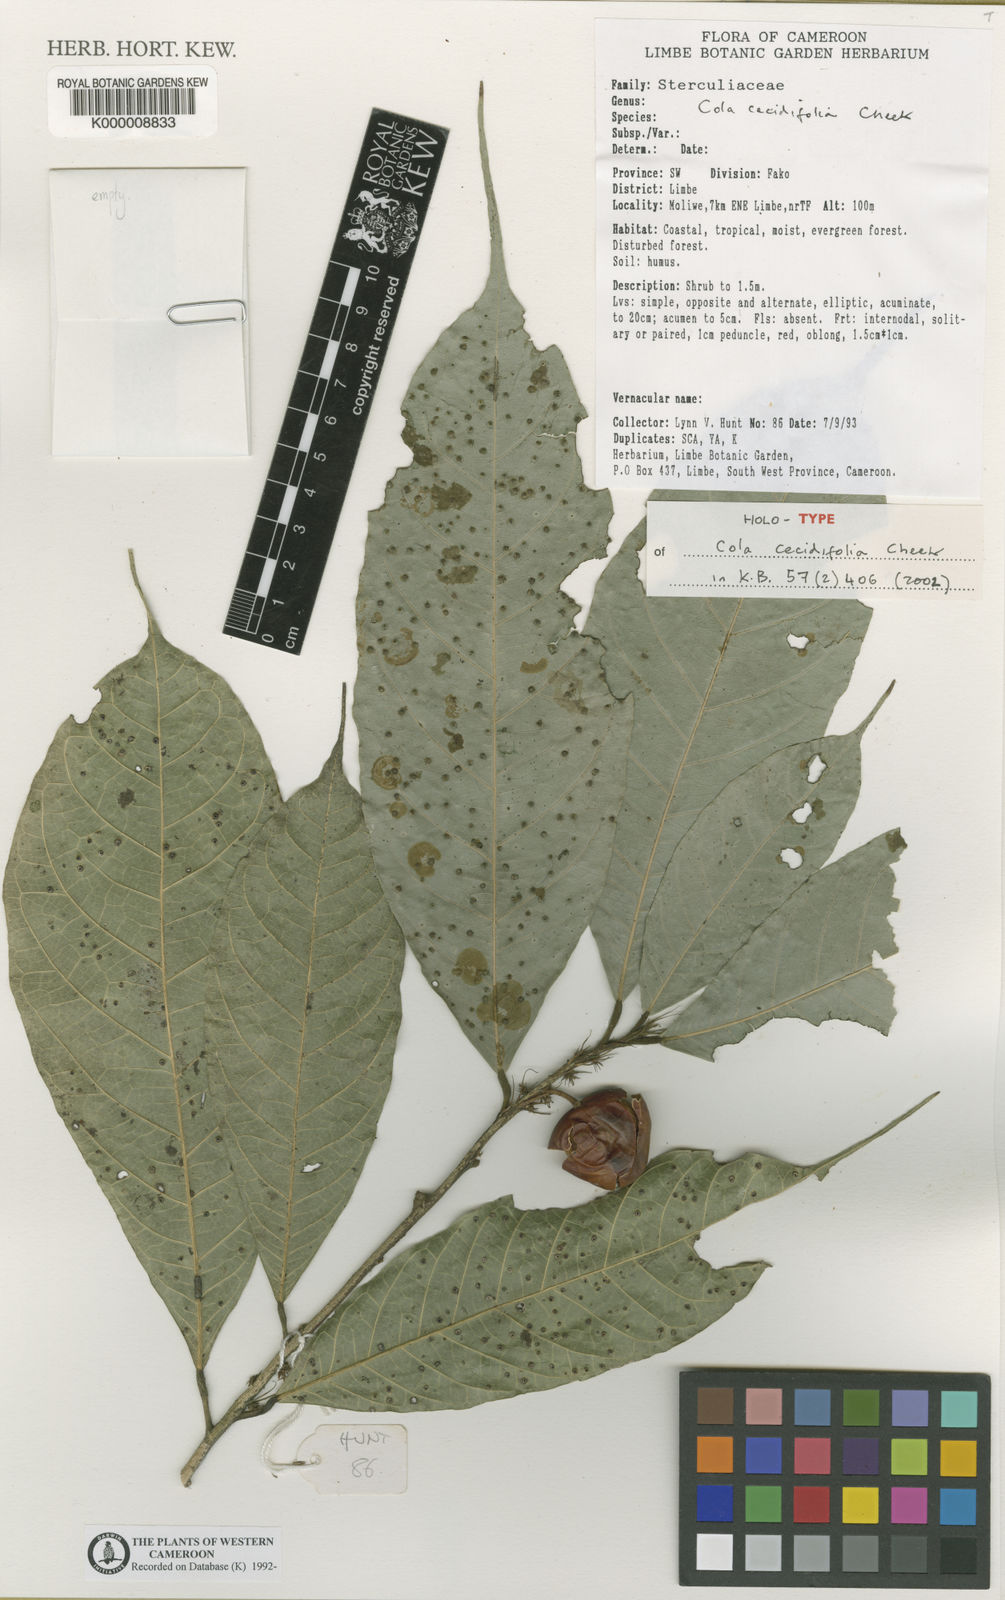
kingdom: Plantae
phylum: Tracheophyta
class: Magnoliopsida
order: Malvales
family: Malvaceae
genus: Cola
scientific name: Cola cecidiifolia
